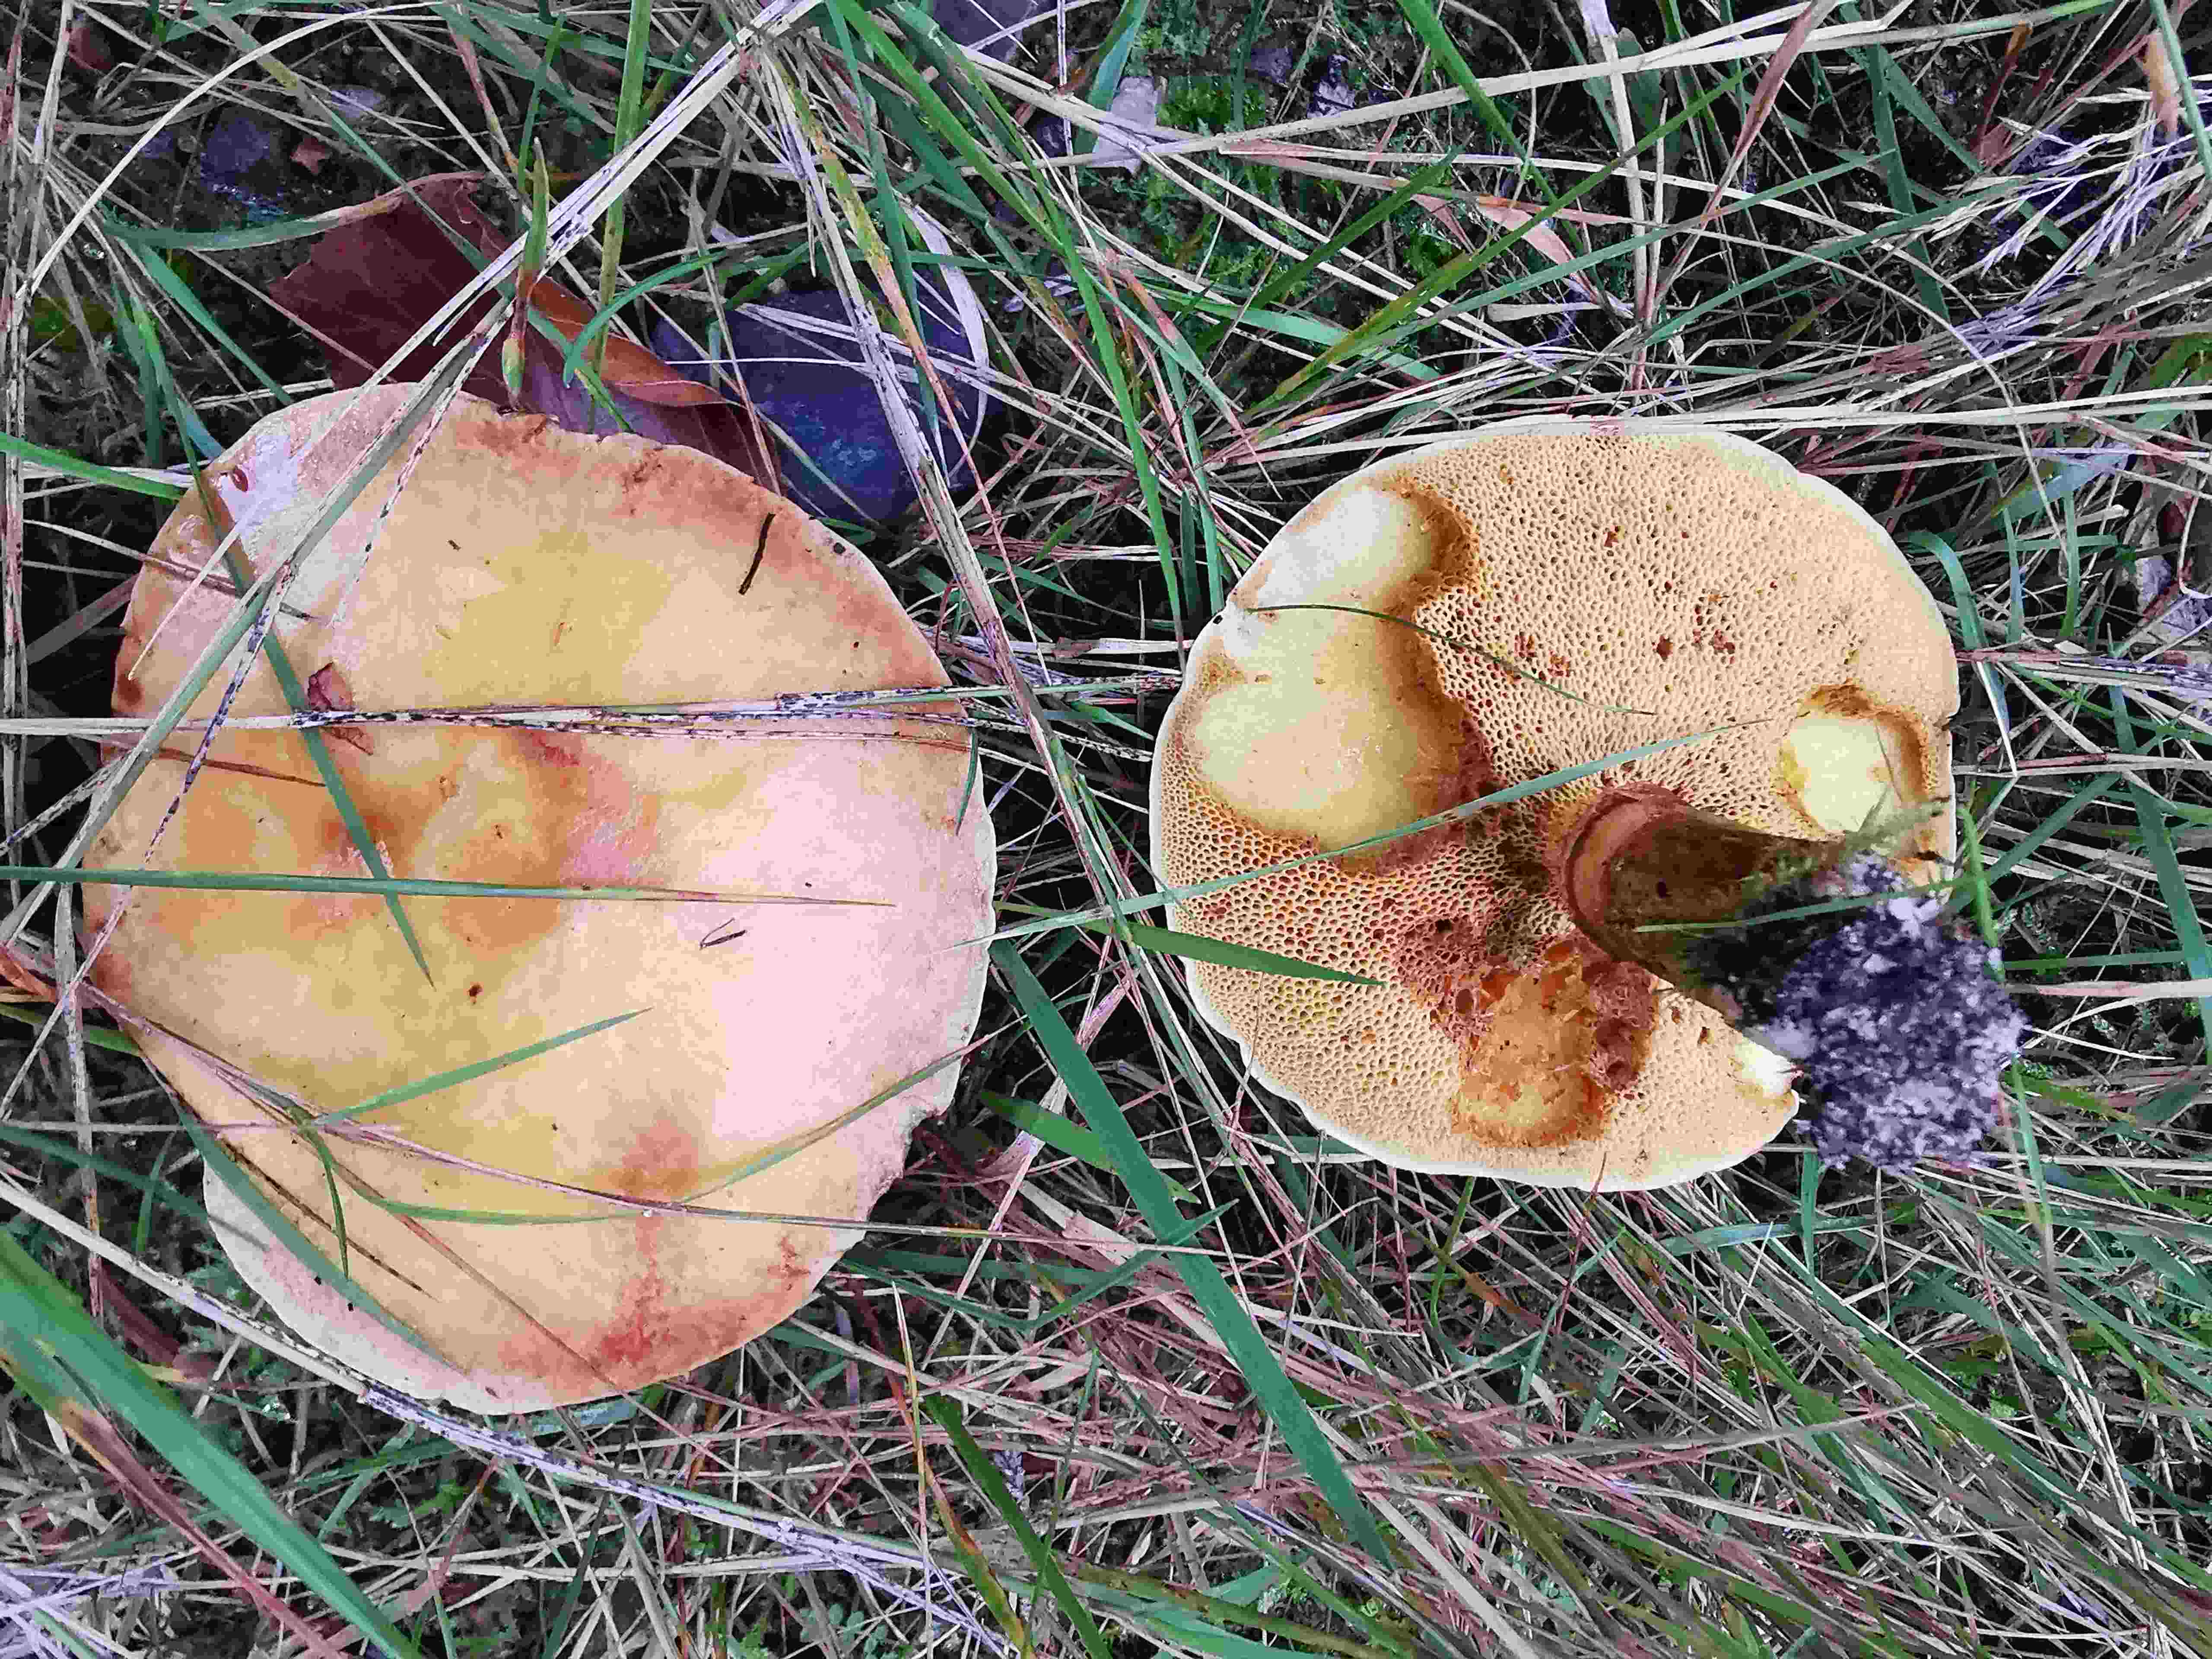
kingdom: Fungi
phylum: Basidiomycota
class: Agaricomycetes
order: Boletales
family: Suillaceae
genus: Suillus
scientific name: Suillus grevillei
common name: lærke-slimrørhat
